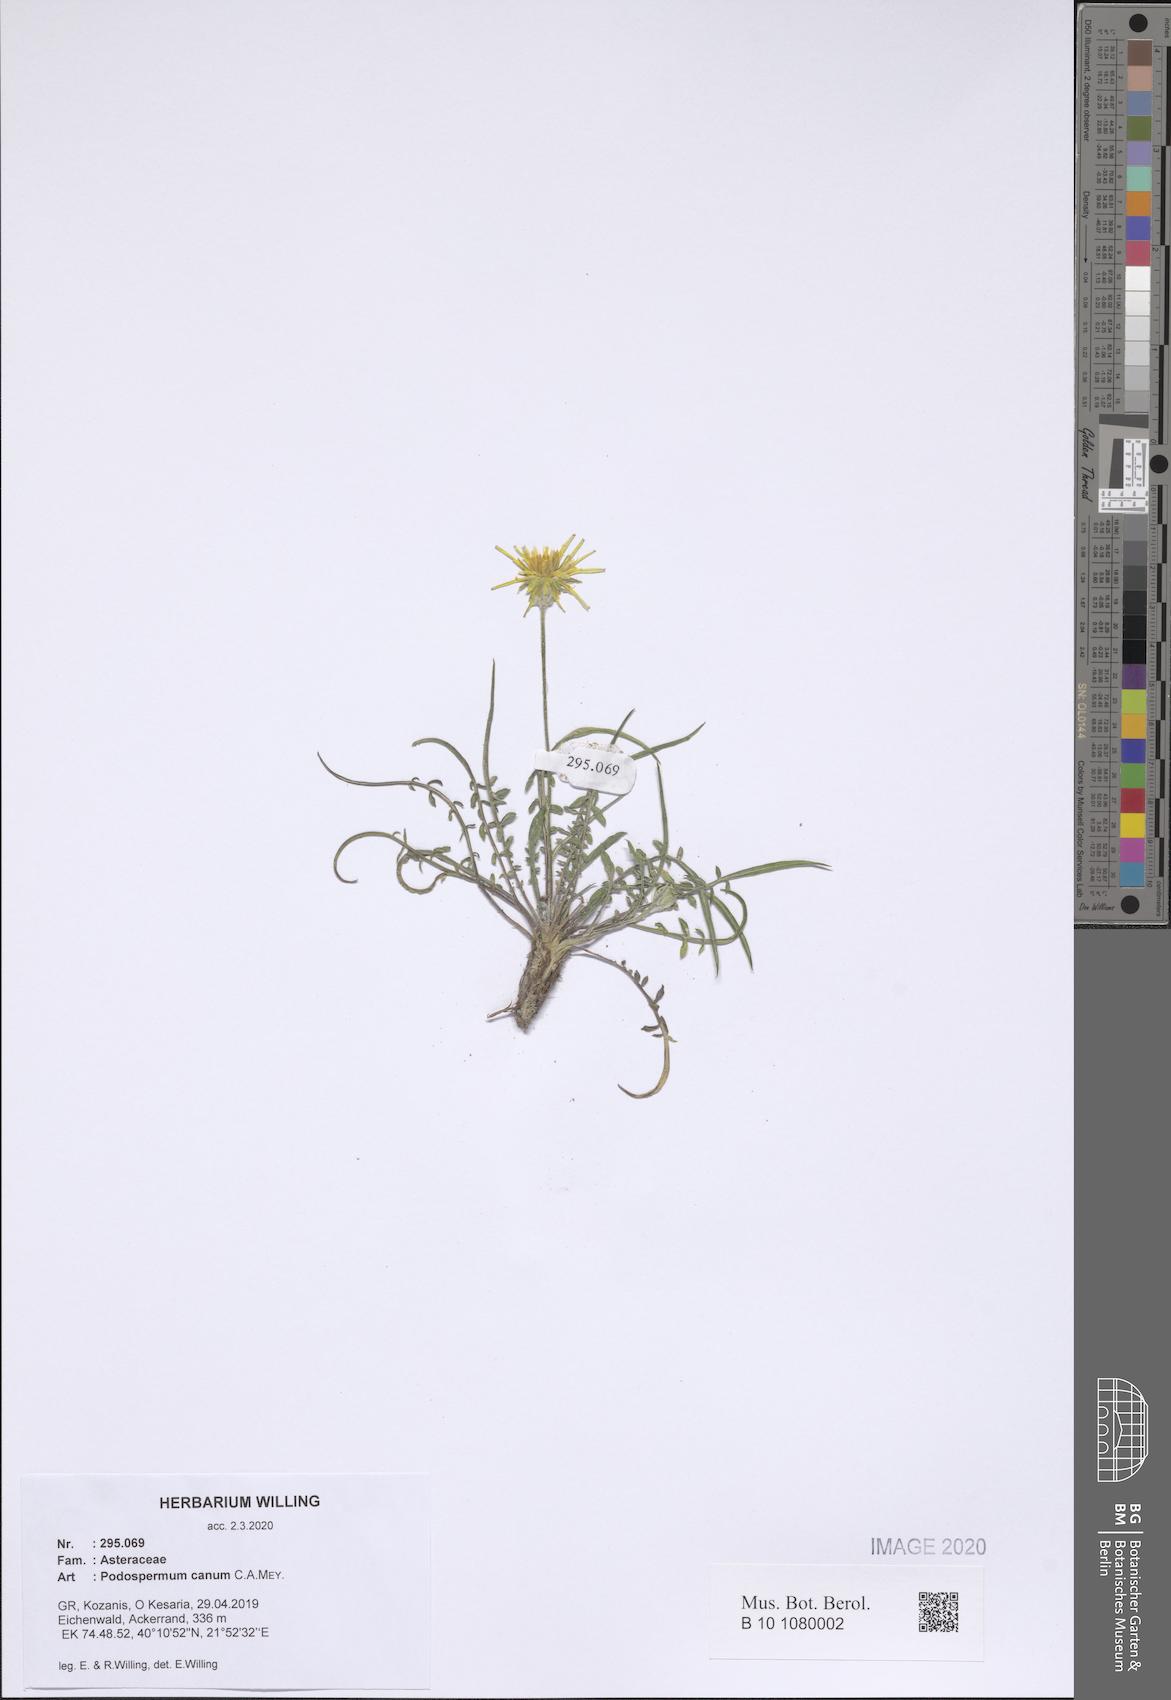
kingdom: Plantae
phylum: Tracheophyta
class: Magnoliopsida
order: Asterales
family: Asteraceae
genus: Scorzonera
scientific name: Scorzonera cana
